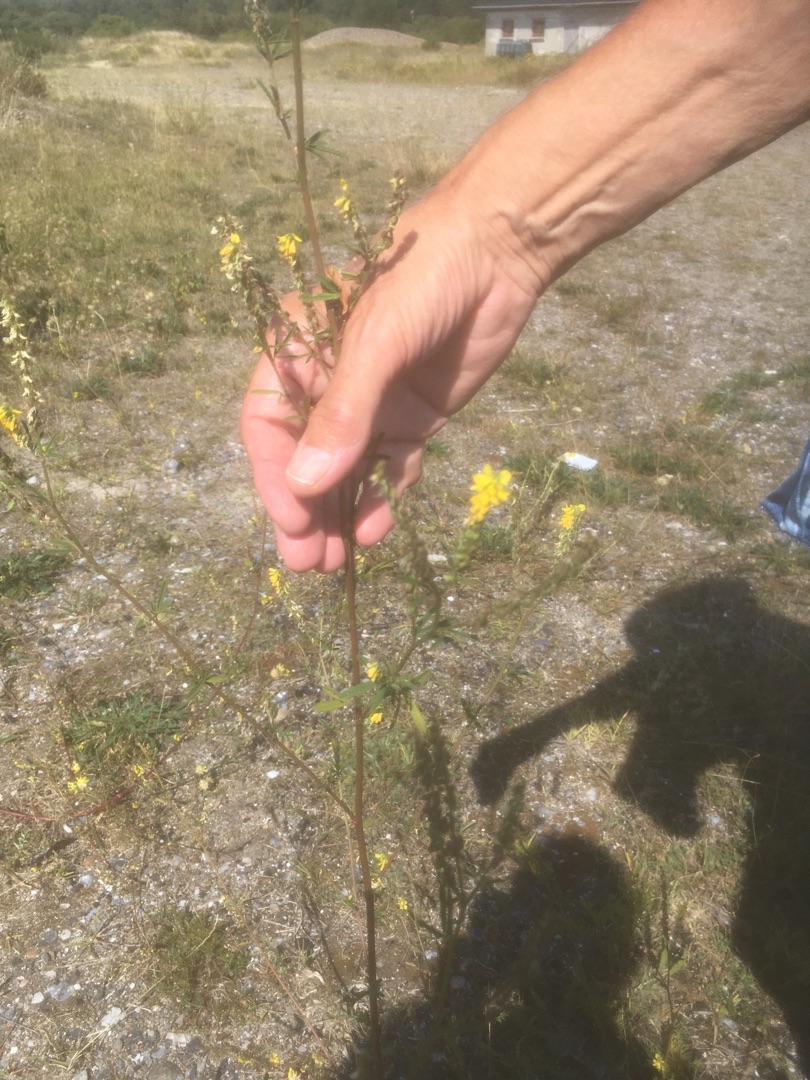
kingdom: Plantae
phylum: Tracheophyta
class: Magnoliopsida
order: Fabales
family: Fabaceae
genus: Melilotus
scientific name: Melilotus
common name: Stenkløverslægten
